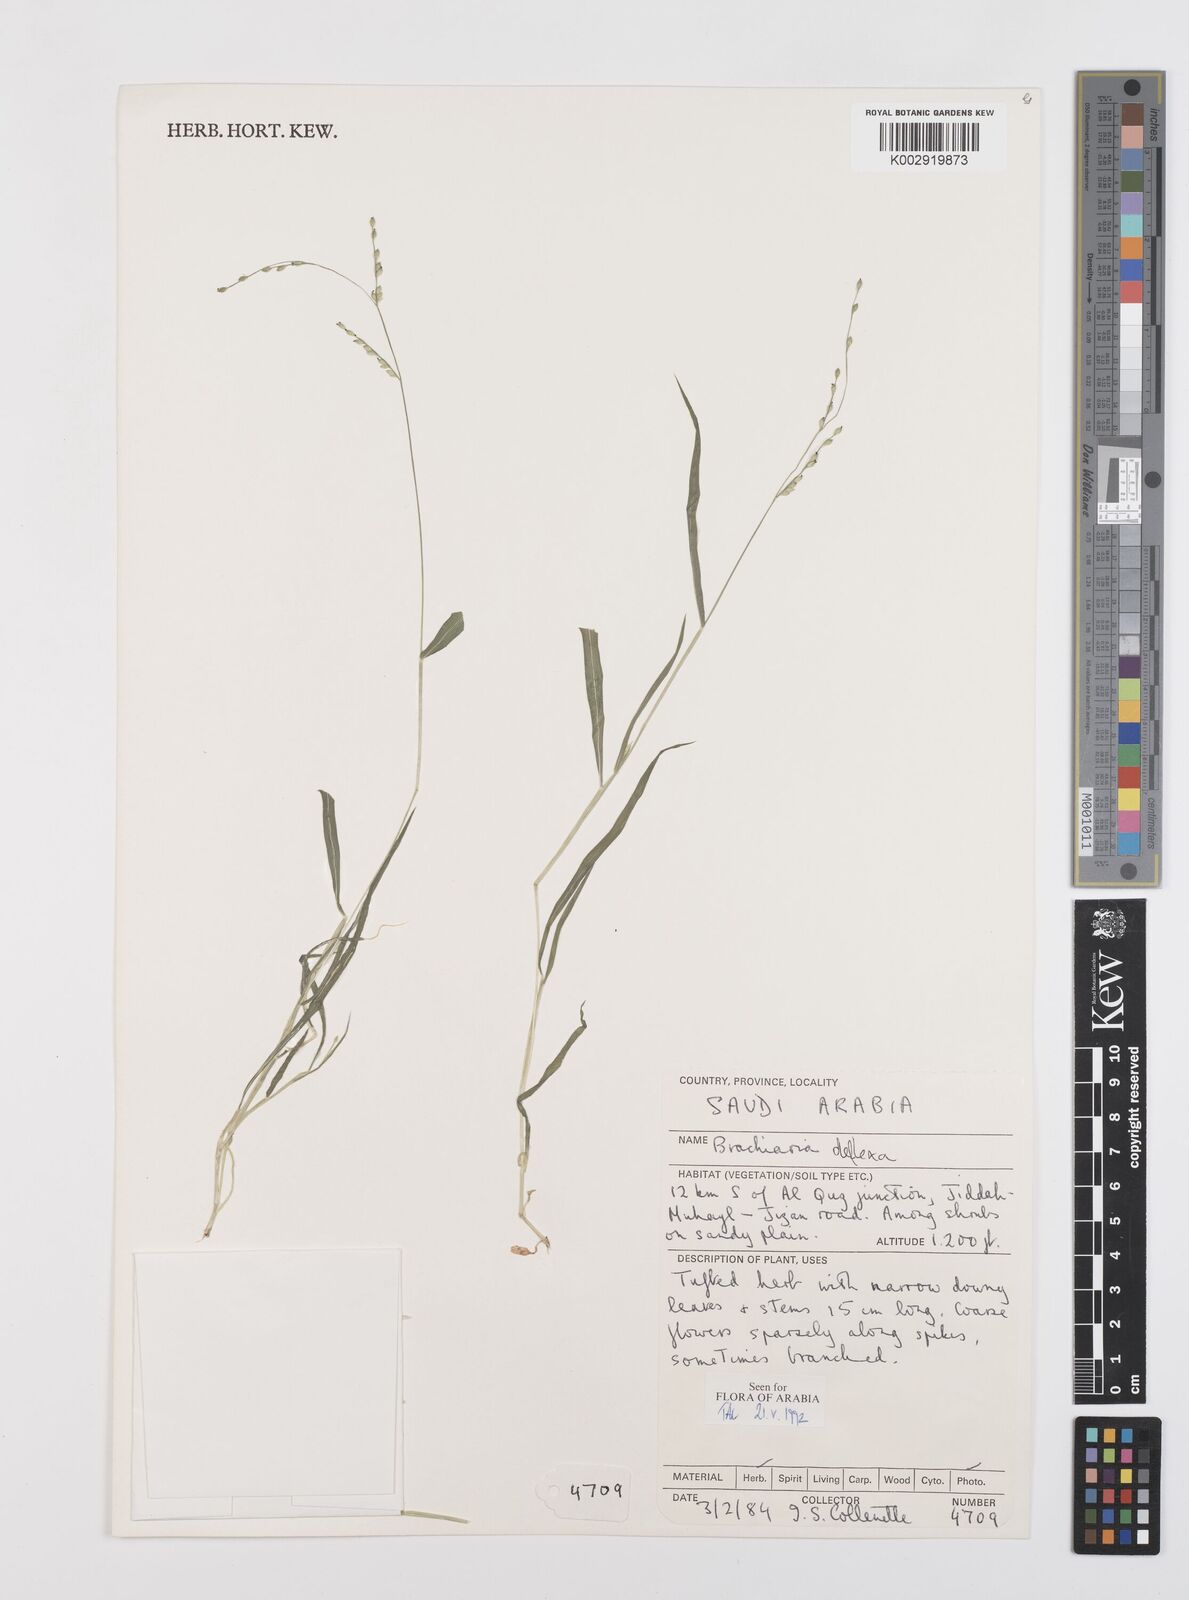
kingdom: Plantae
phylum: Tracheophyta
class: Liliopsida
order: Poales
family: Poaceae
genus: Urochloa
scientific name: Urochloa deflexa
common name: Guinea millet
